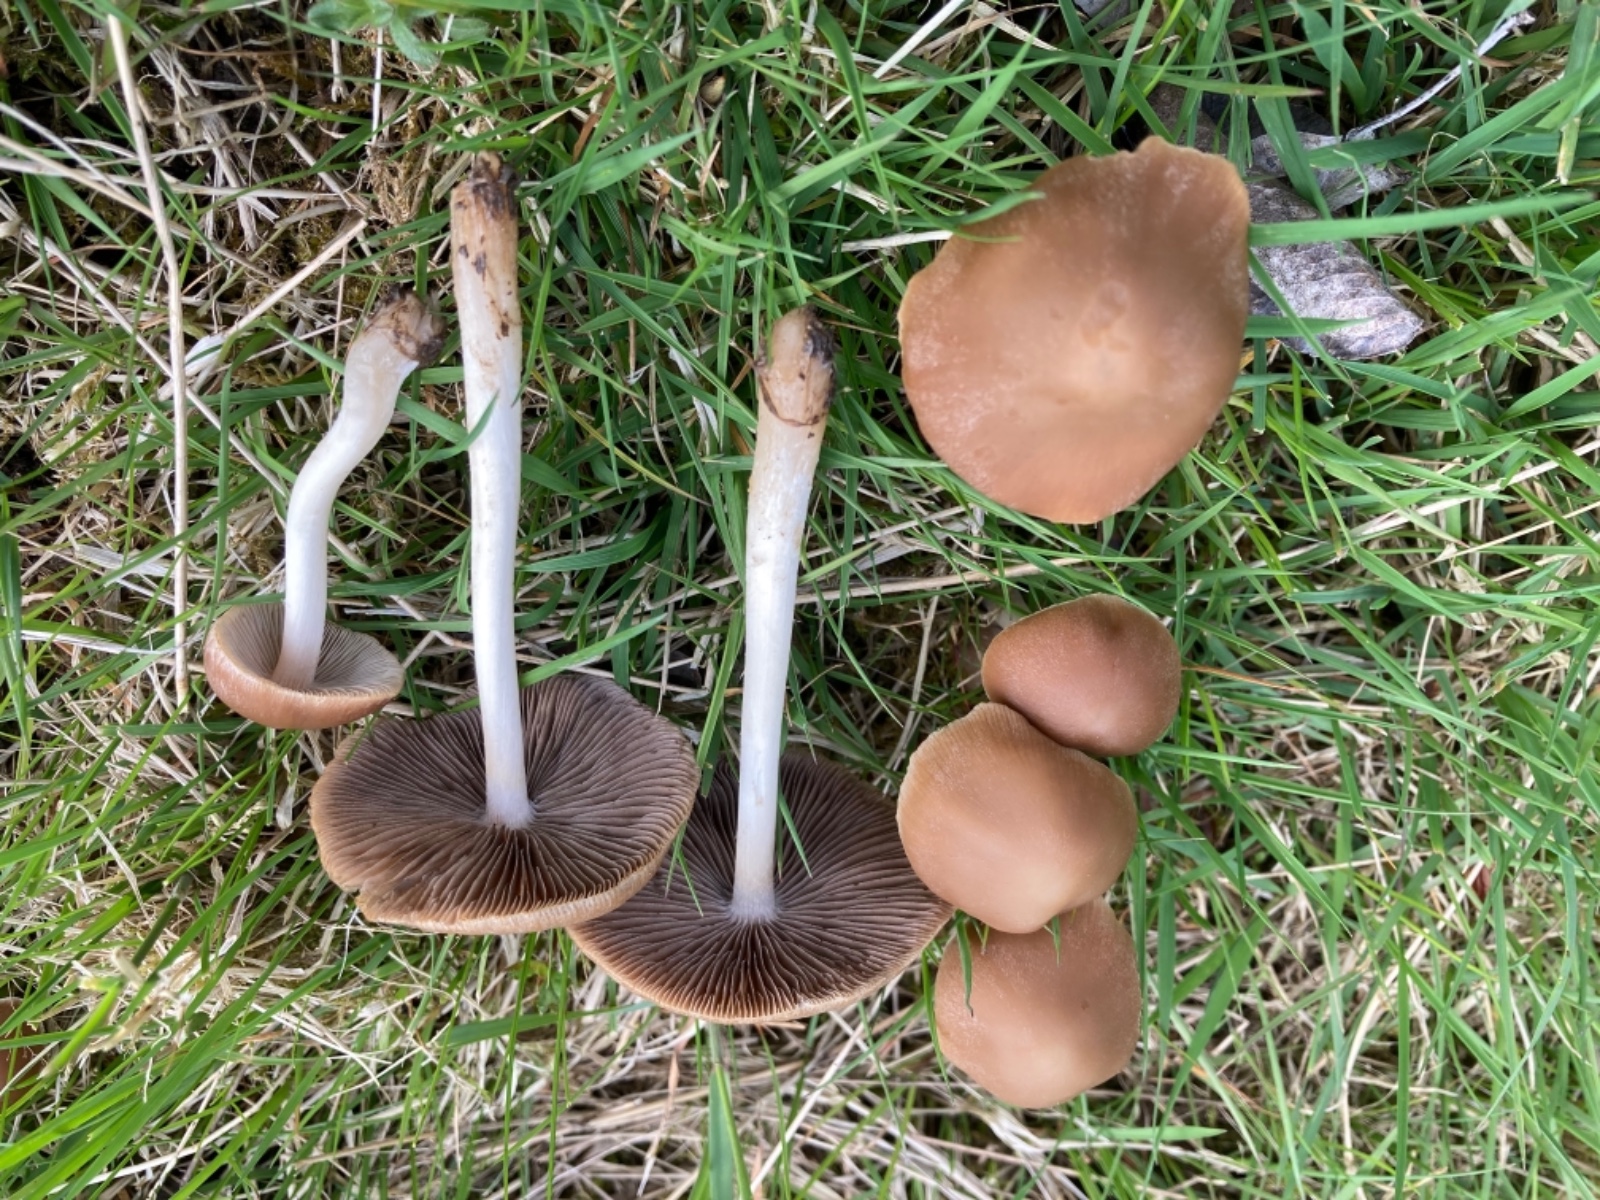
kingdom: Fungi
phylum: Basidiomycota
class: Agaricomycetes
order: Agaricales
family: Psathyrellaceae
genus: Psathyrella
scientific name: Psathyrella spadiceogrisea
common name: gråbrun mørkhat
